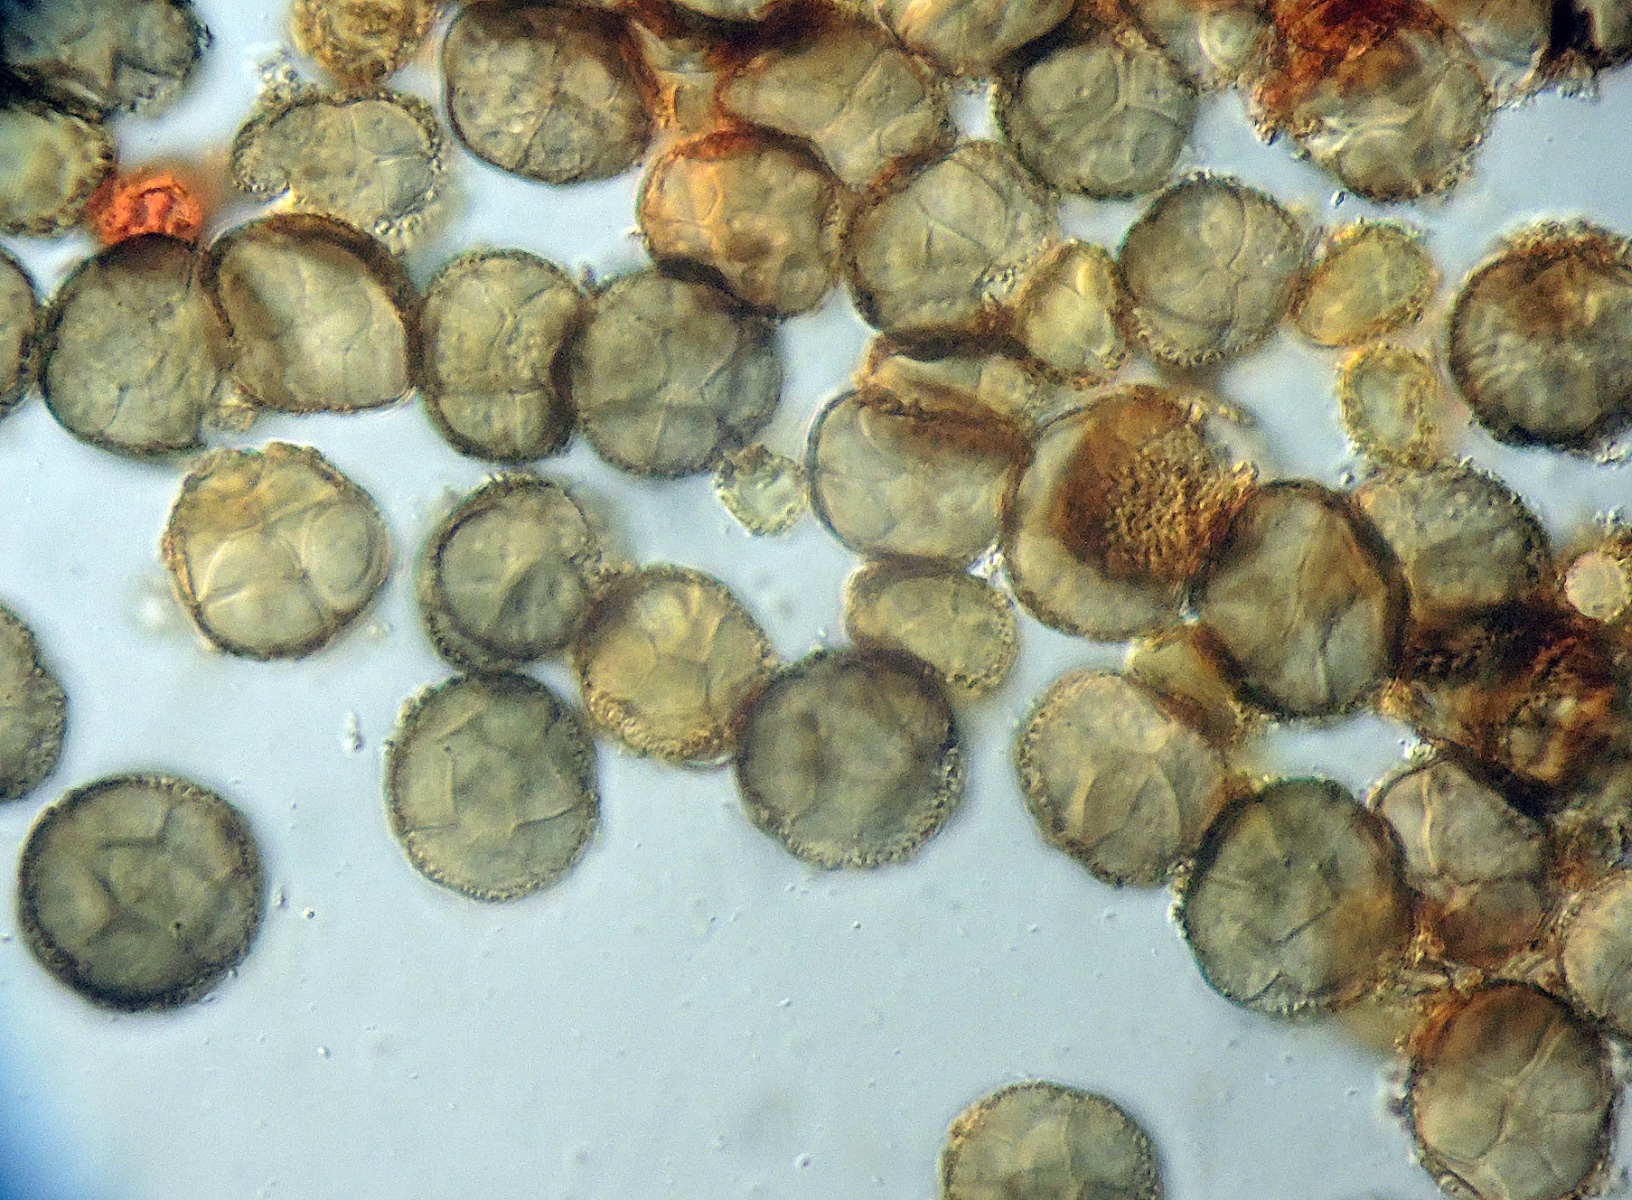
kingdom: Fungi
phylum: Ascomycota
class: Dothideomycetes
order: Pleosporales
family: Didymellaceae
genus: Epicoccum
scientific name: Epicoccum nigrum
